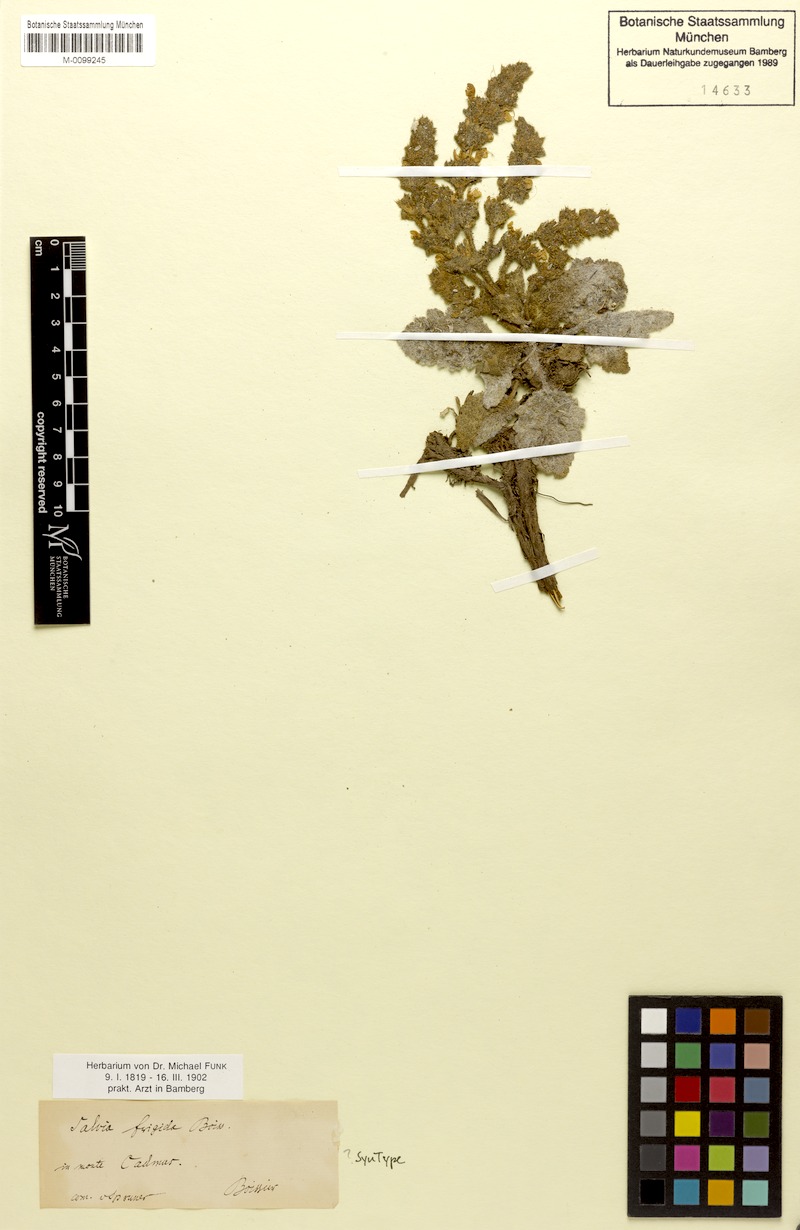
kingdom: Plantae
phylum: Tracheophyta
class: Magnoliopsida
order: Lamiales
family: Lamiaceae
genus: Salvia
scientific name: Salvia frigida
